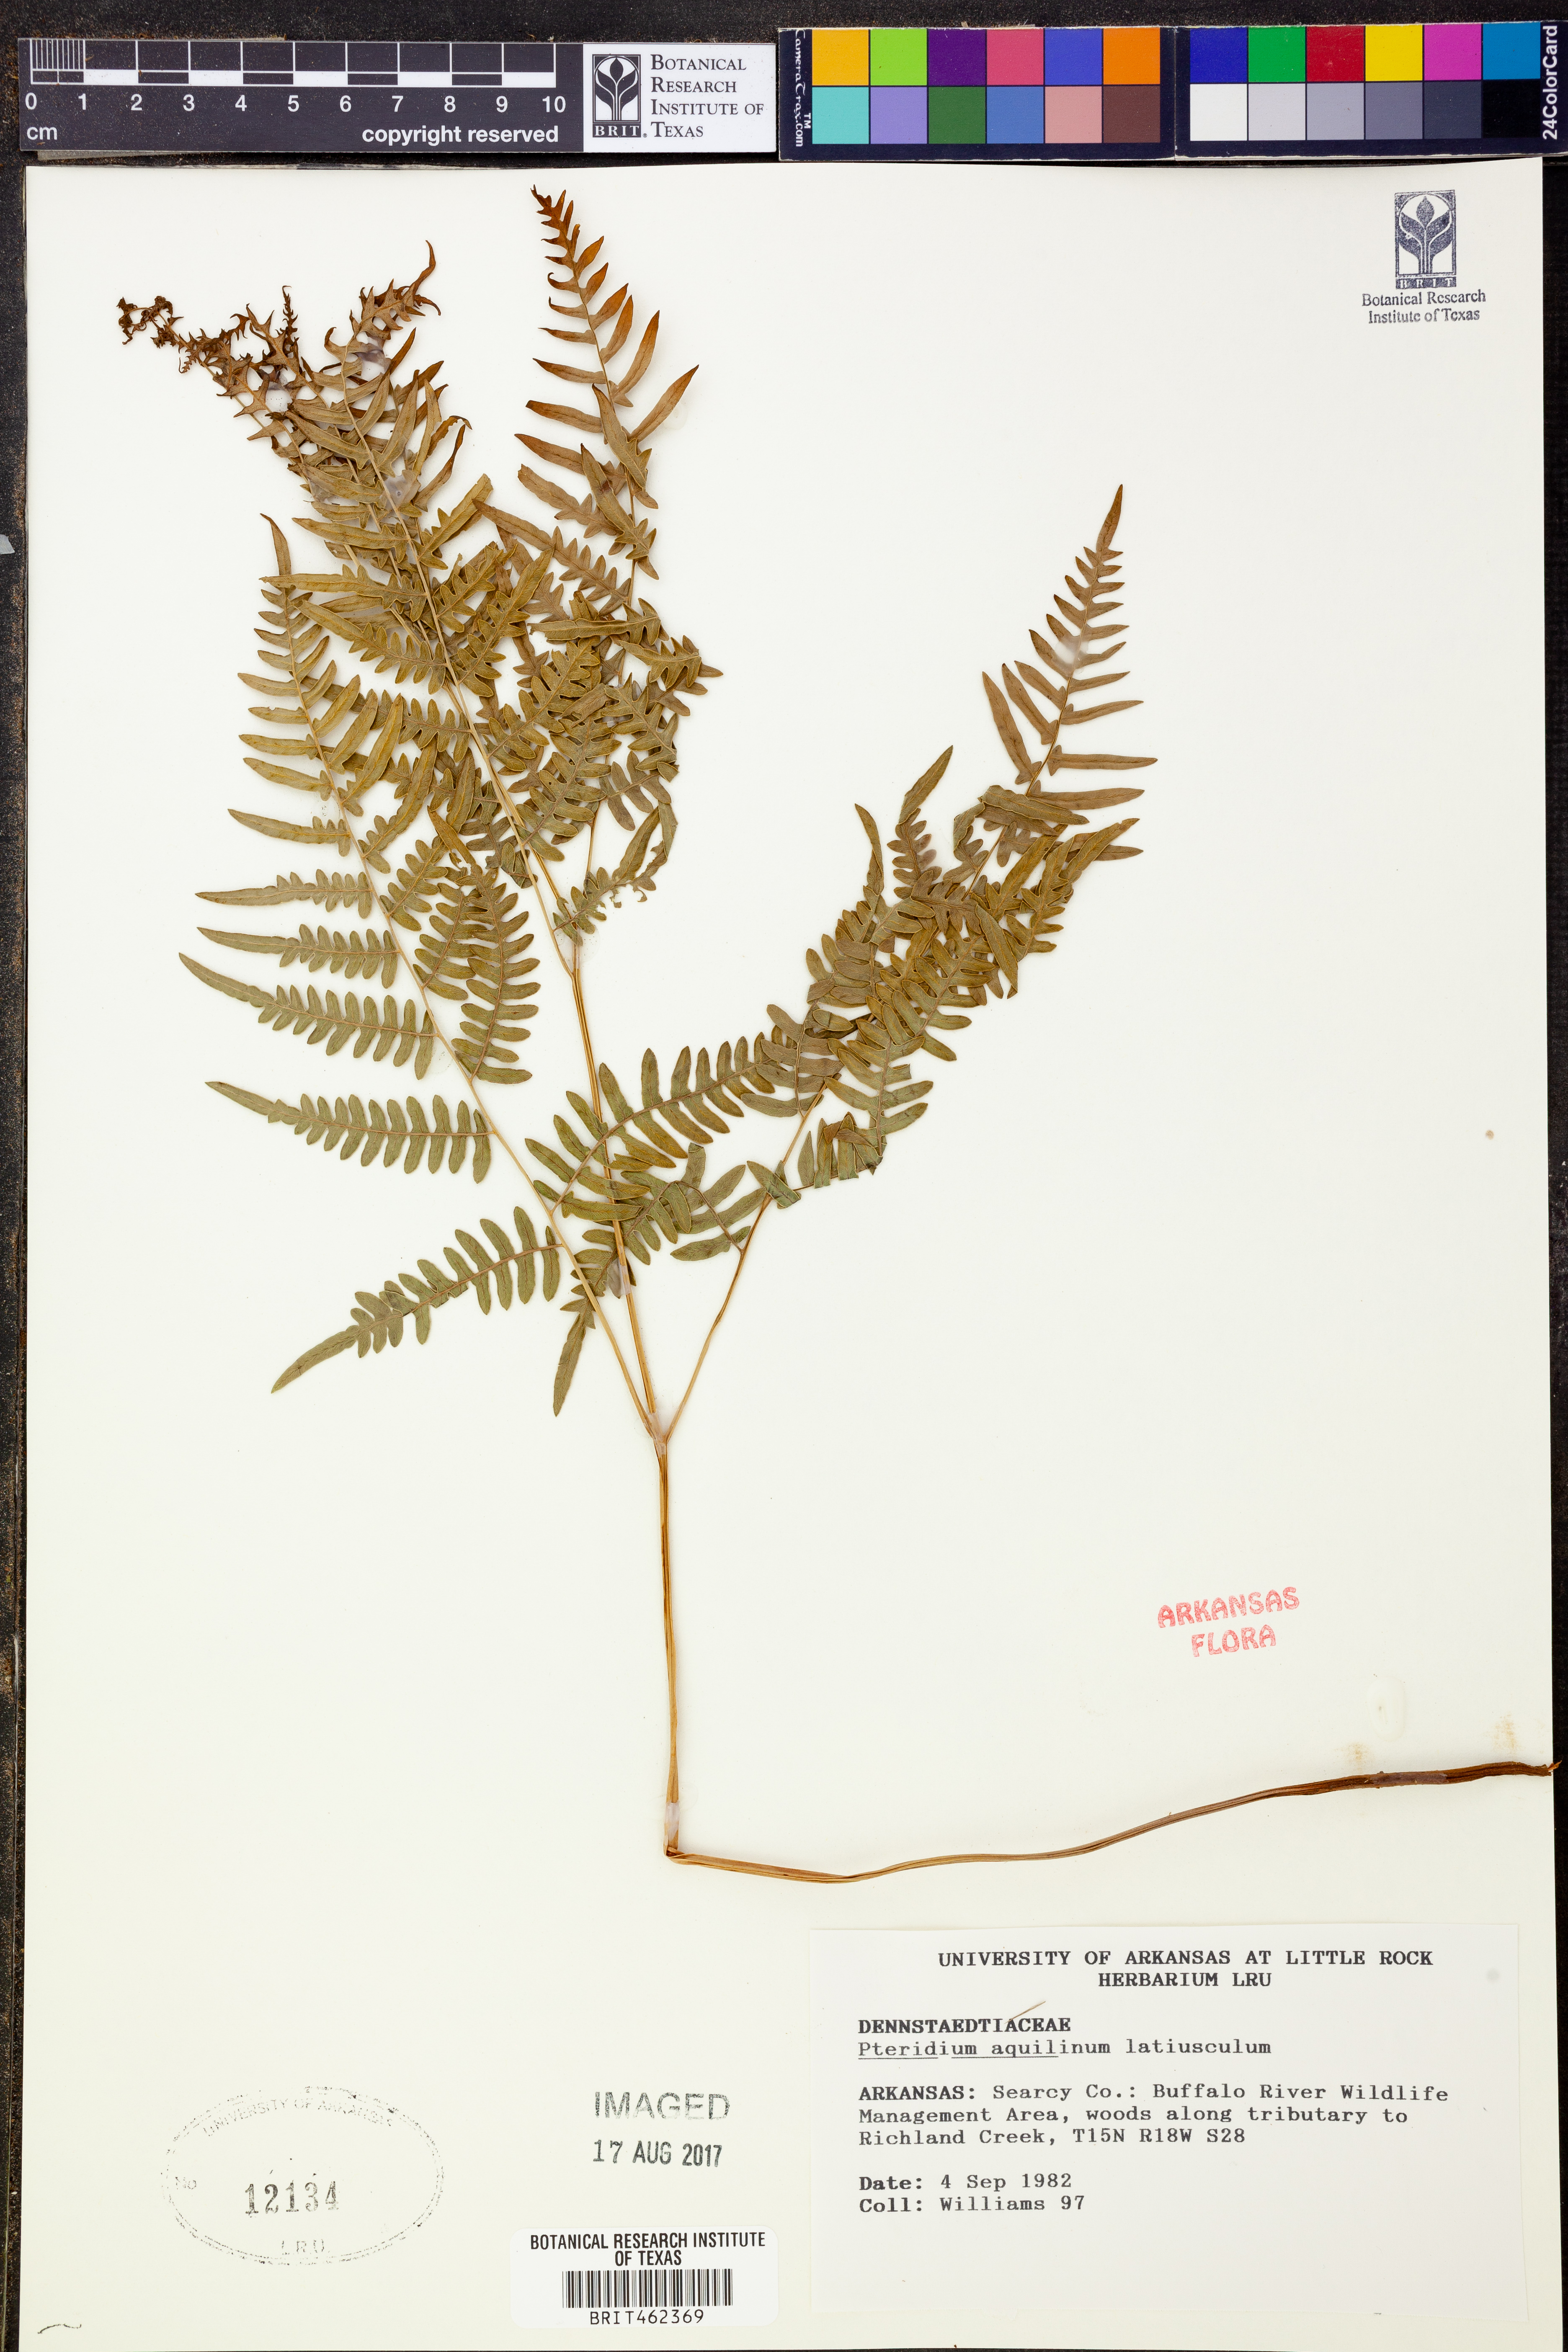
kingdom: Plantae
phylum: Tracheophyta
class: Polypodiopsida
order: Polypodiales
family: Dennstaedtiaceae
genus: Pteridium
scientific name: Pteridium aquilinum
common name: Bracken
